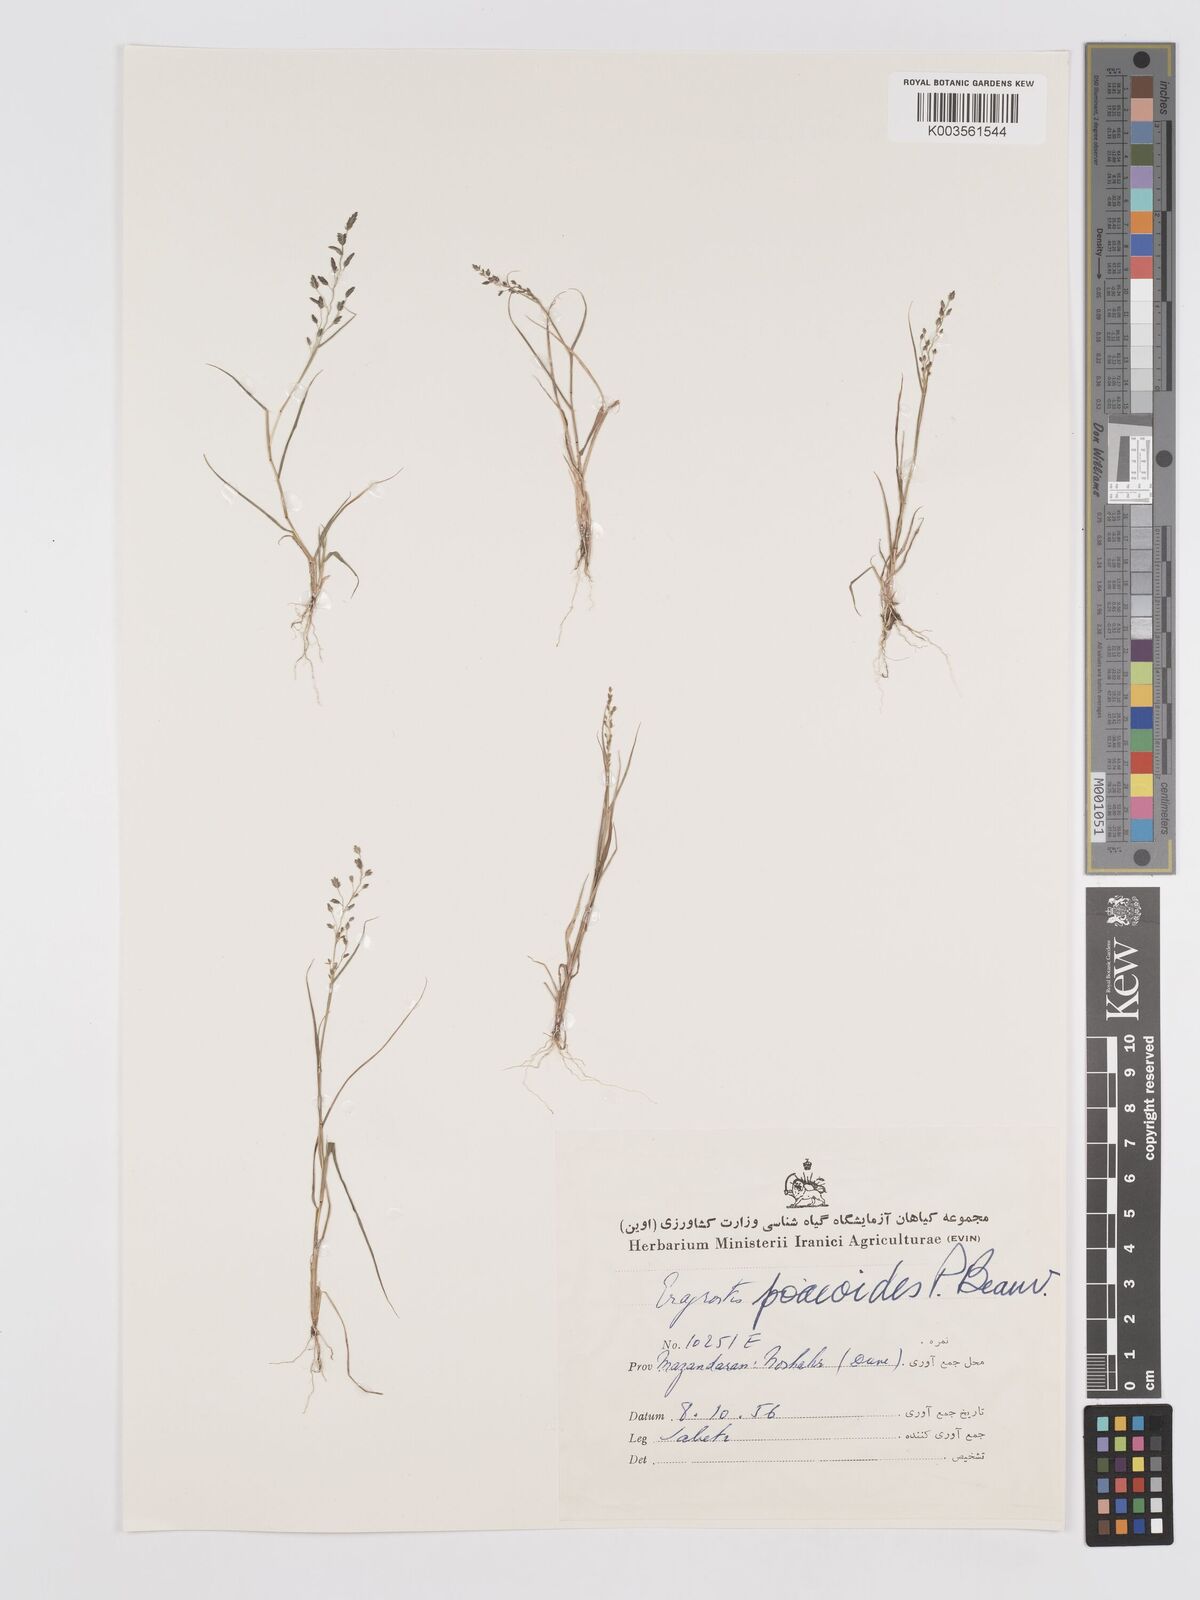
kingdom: Plantae
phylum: Tracheophyta
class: Liliopsida
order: Poales
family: Poaceae
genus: Eragrostis
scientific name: Eragrostis minor
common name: Small love-grass
